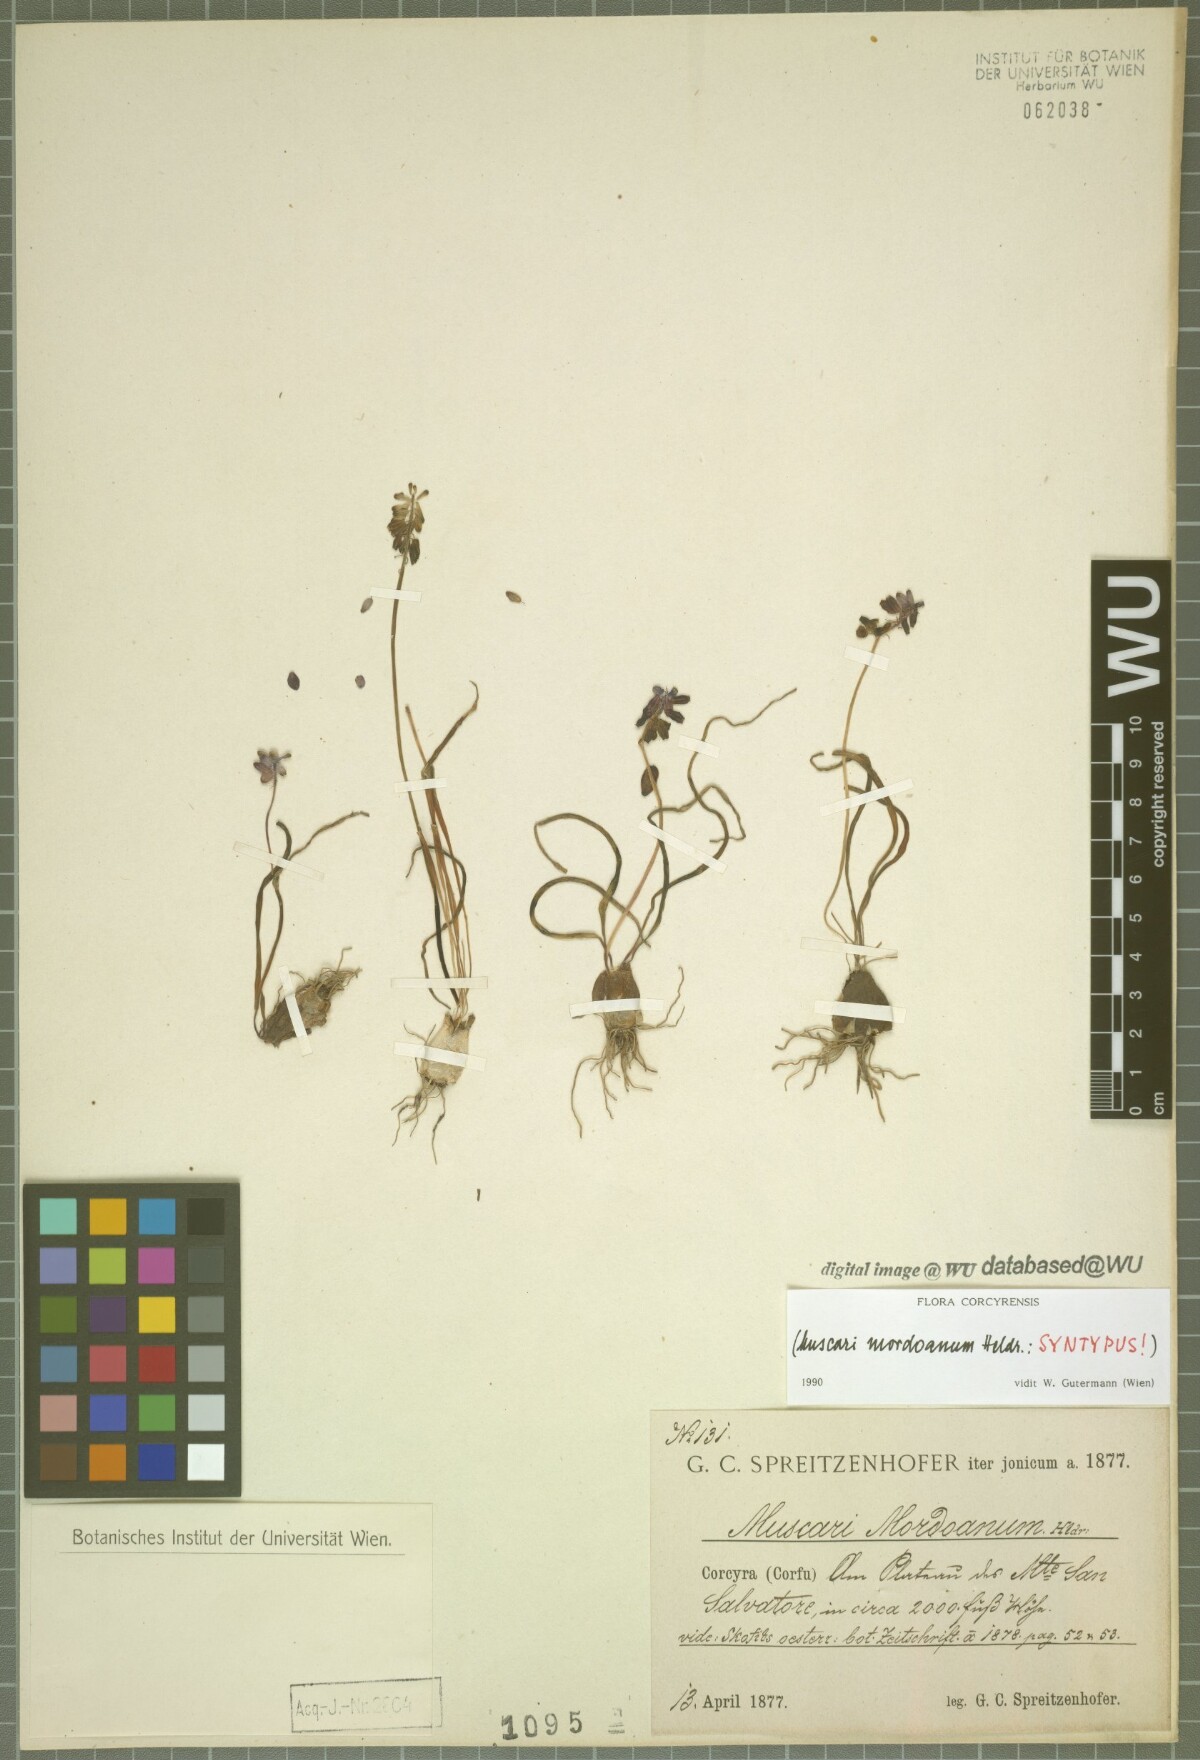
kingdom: Plantae
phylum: Tracheophyta
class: Liliopsida
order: Asparagales
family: Asparagaceae
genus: Muscari
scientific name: Muscari neglectum
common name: Grape-hyacinth
